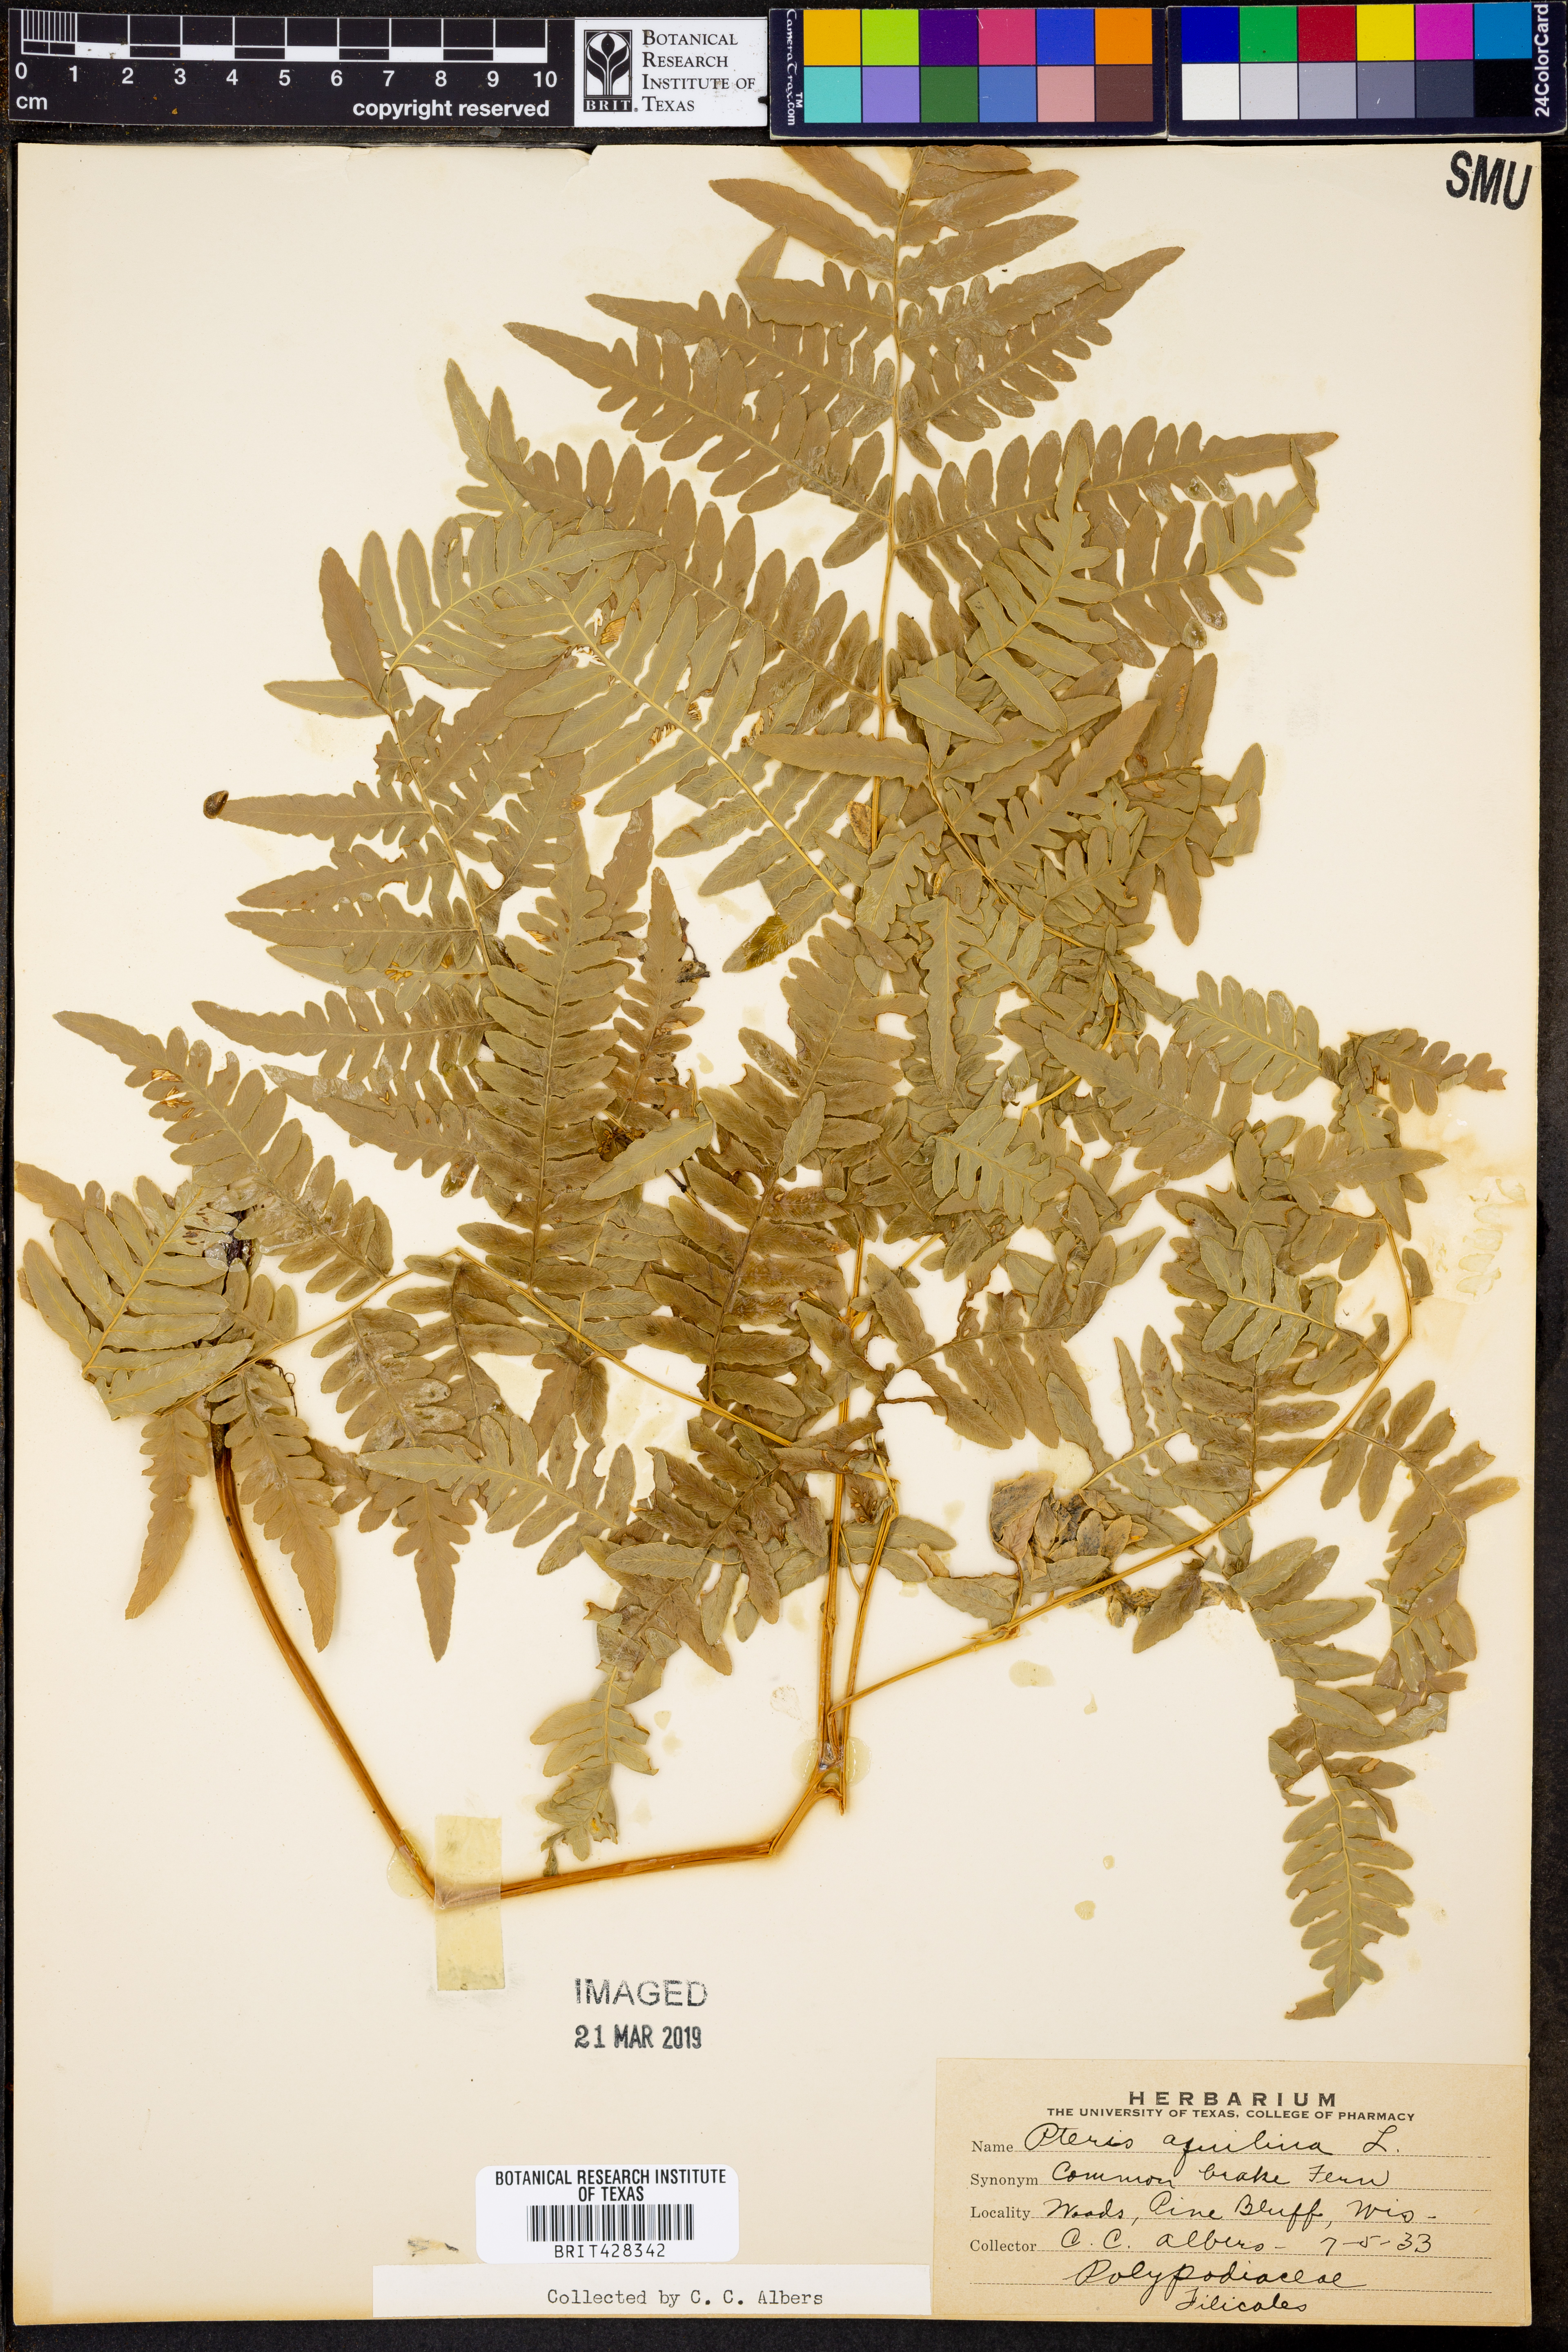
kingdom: Plantae
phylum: Tracheophyta
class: Polypodiopsida
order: Polypodiales
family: Dennstaedtiaceae
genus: Pteridium
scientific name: Pteridium aquilinum
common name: Bracken
